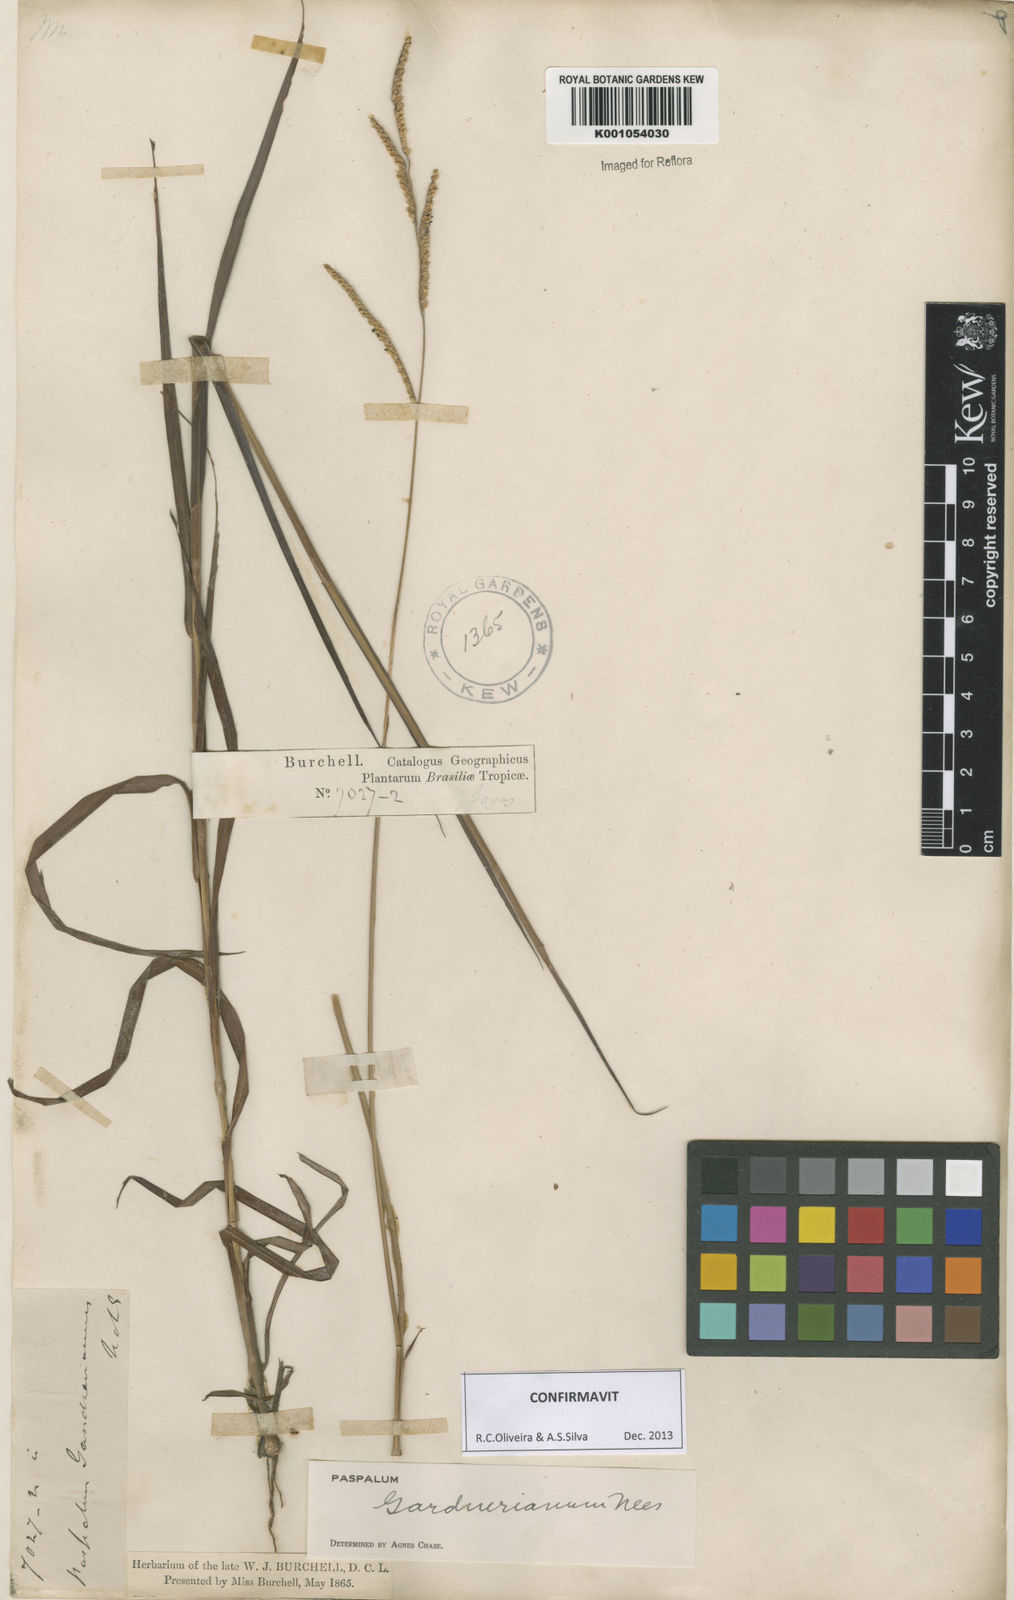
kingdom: Plantae
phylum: Tracheophyta
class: Liliopsida
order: Poales
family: Poaceae
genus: Paspalum
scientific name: Paspalum gardnerianum
